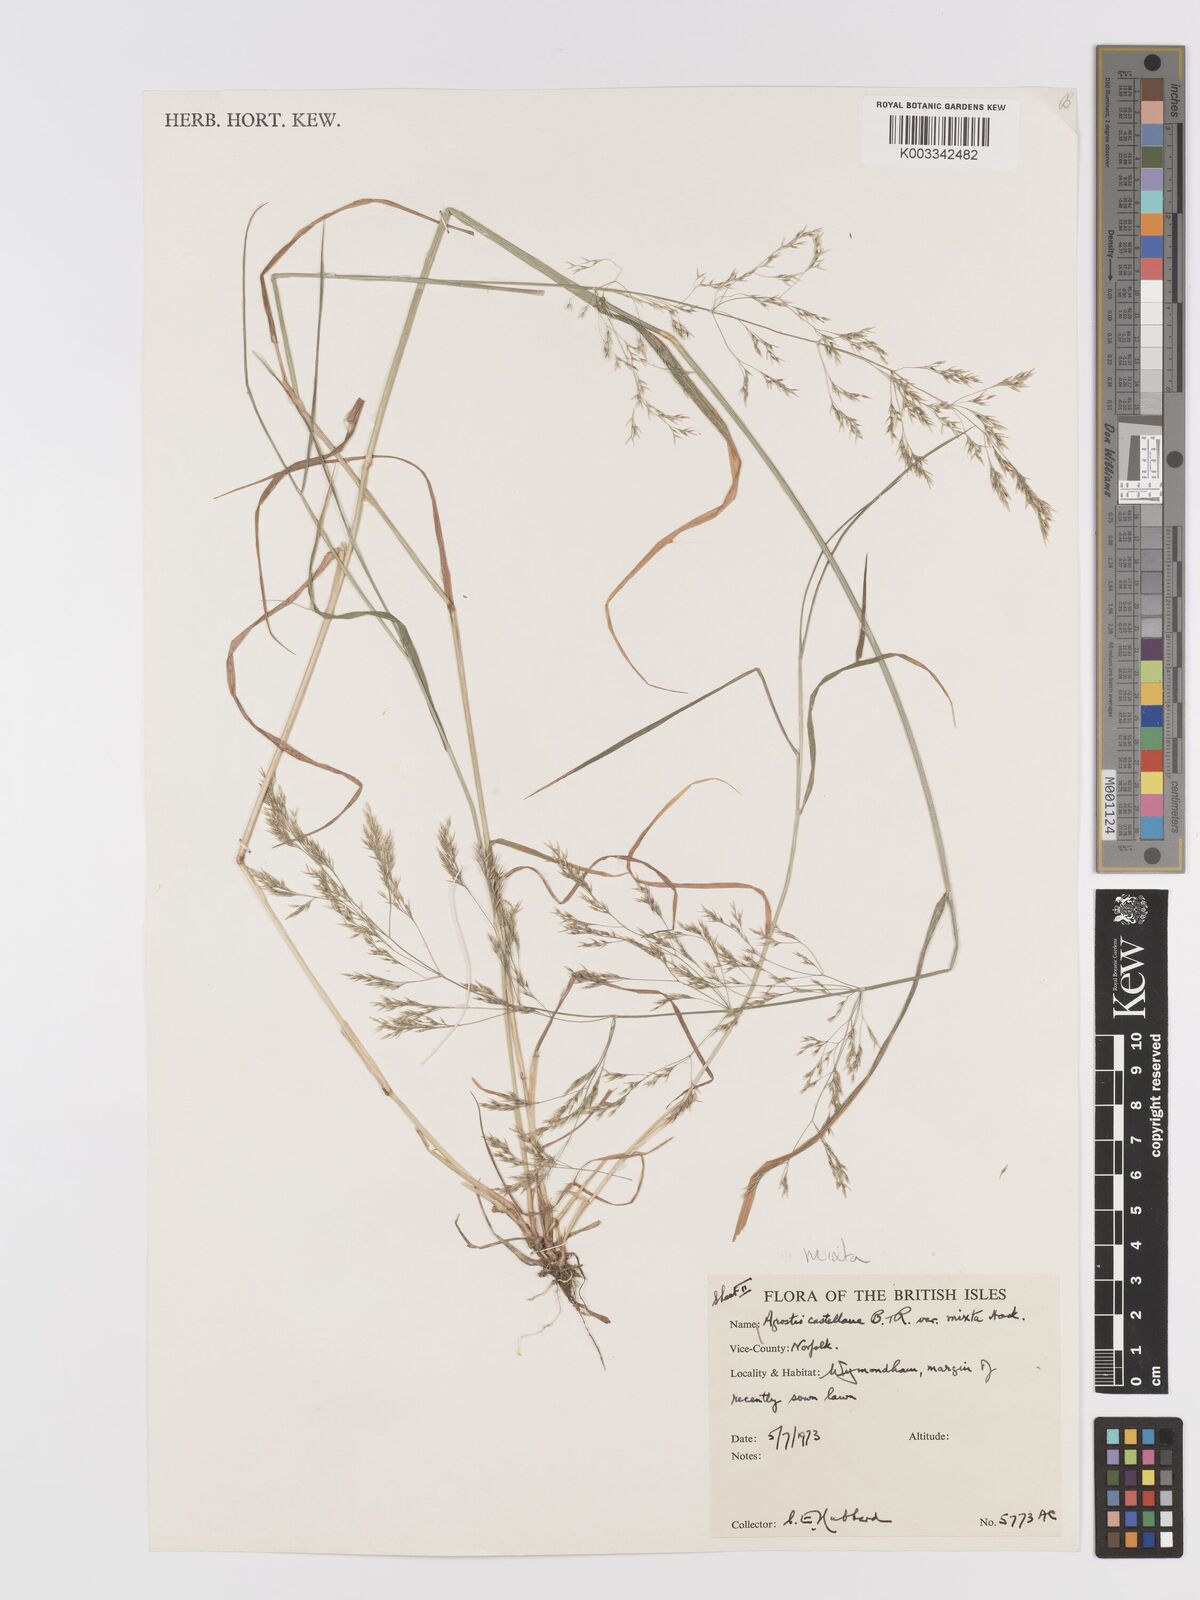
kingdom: Plantae
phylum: Tracheophyta
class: Liliopsida
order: Poales
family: Poaceae
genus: Agrostis
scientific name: Agrostis castellana
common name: Highland bent
